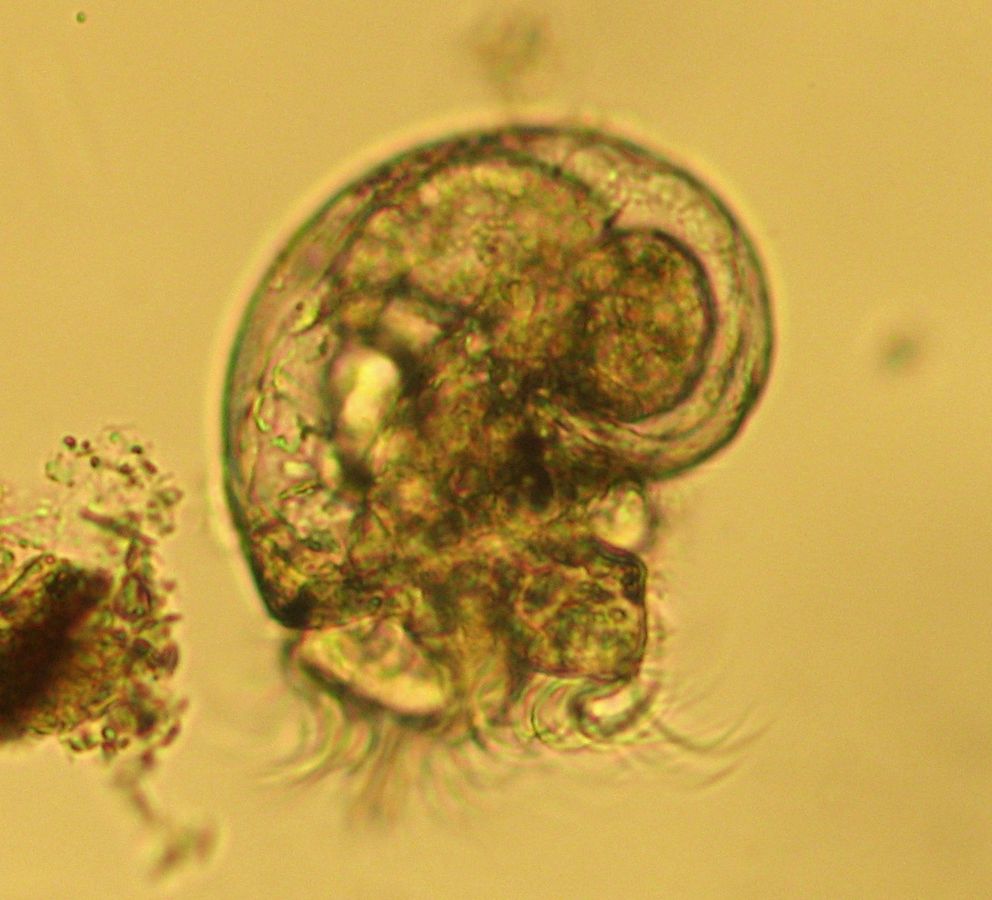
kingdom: Animalia
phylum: Mollusca
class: Gastropoda
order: Nudibranchia
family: Aeolidiidae
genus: Aeolidia
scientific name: Aeolidia papillosa
